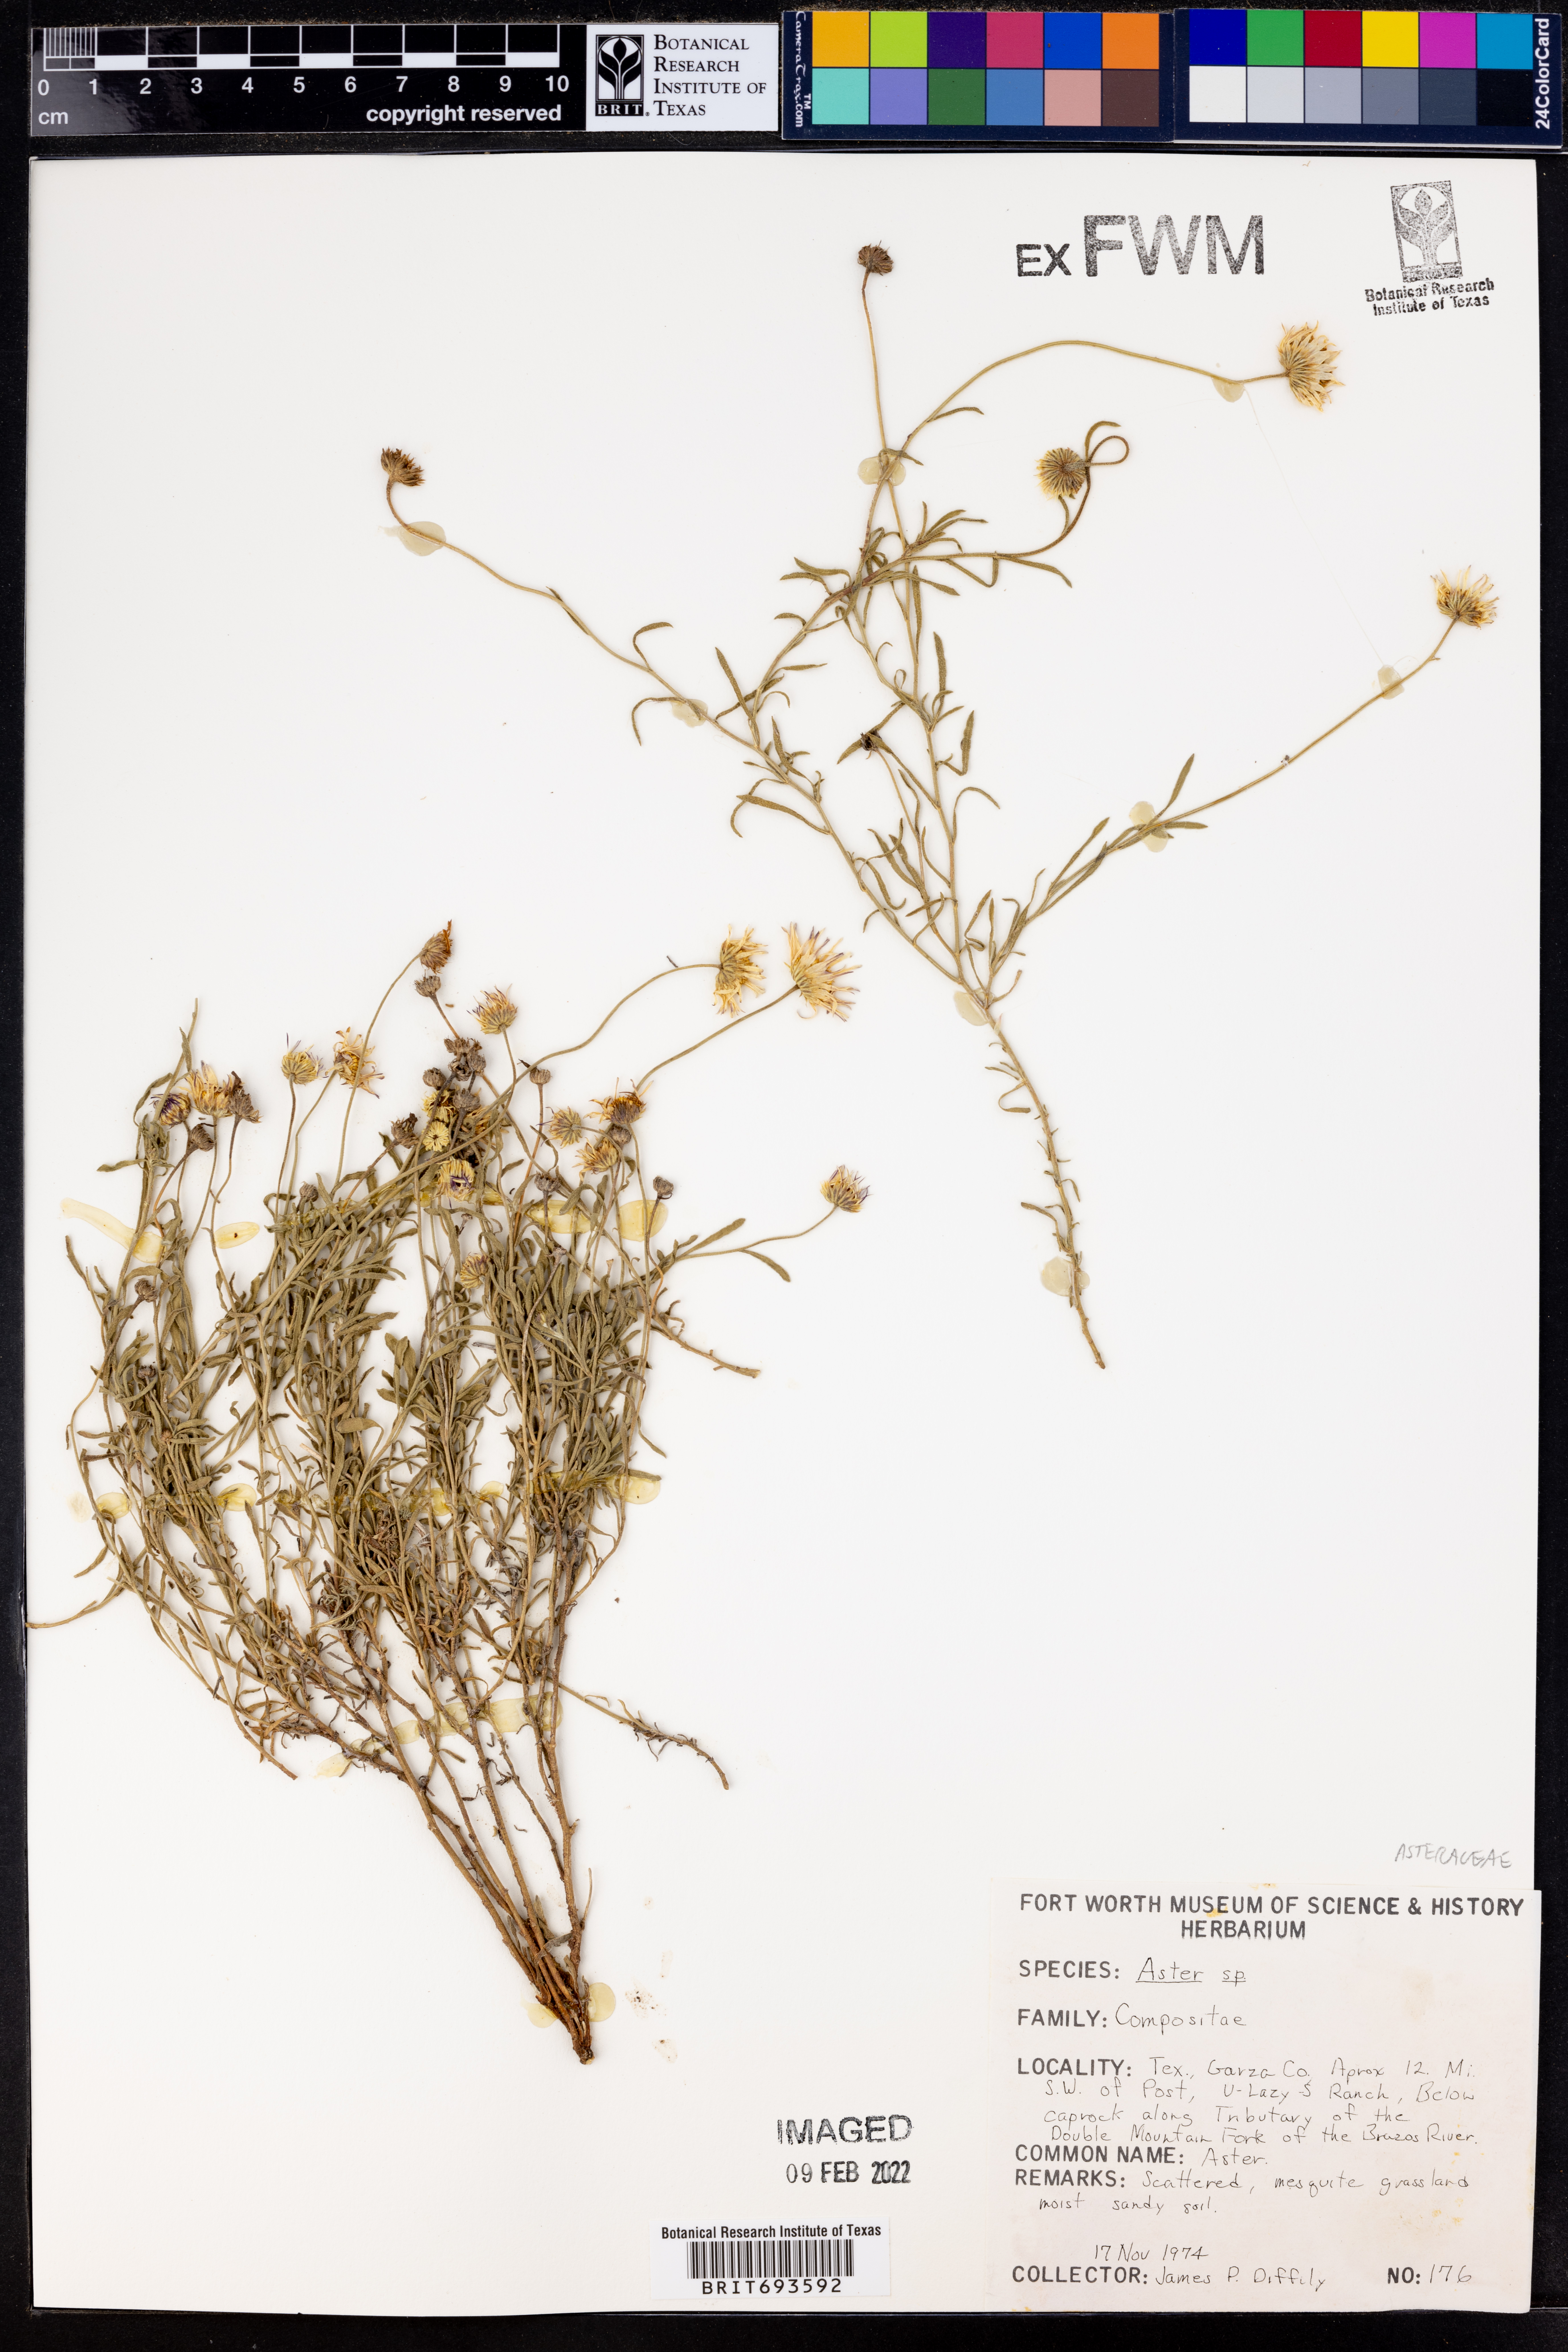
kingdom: Plantae
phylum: Tracheophyta
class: Magnoliopsida
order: Asterales
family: Asteraceae
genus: Aster
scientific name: Aster
